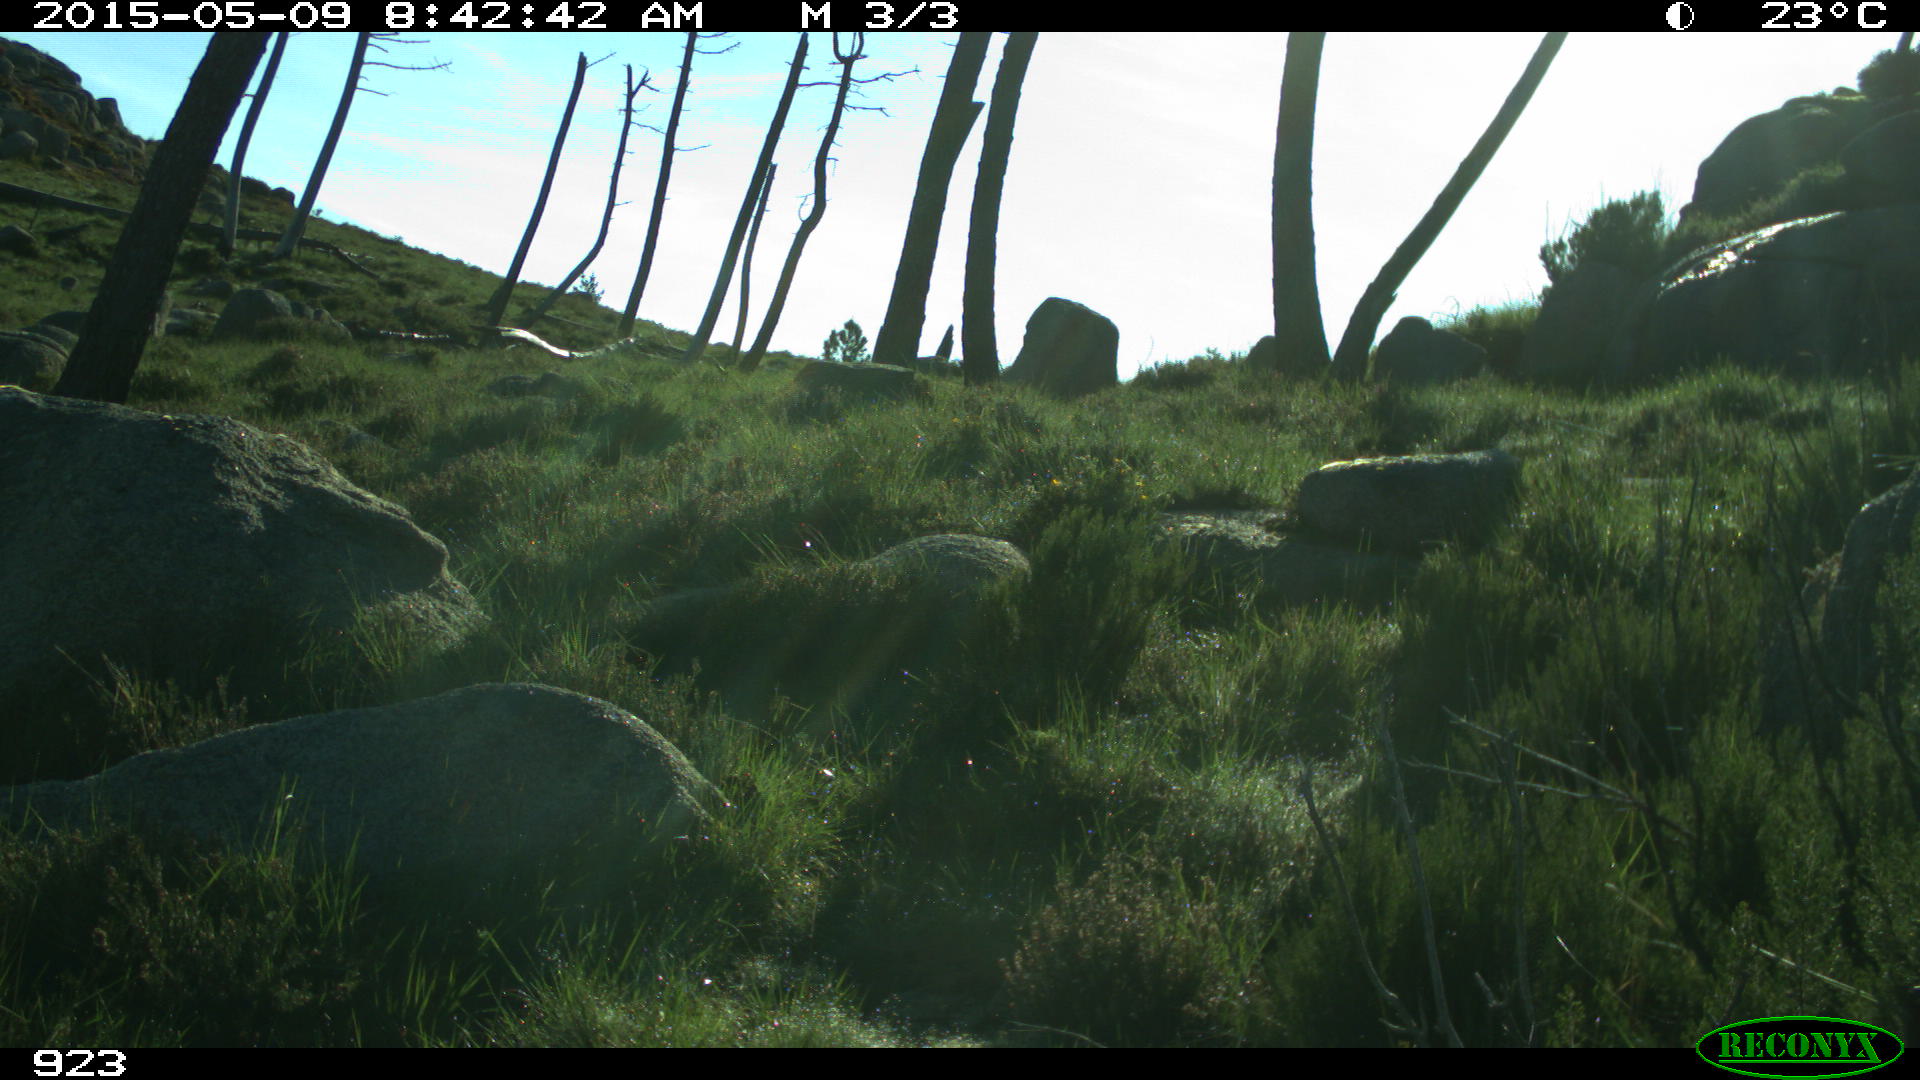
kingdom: Animalia
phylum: Chordata
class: Mammalia
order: Artiodactyla
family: Cervidae
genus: Capreolus
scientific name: Capreolus capreolus
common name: Western roe deer
